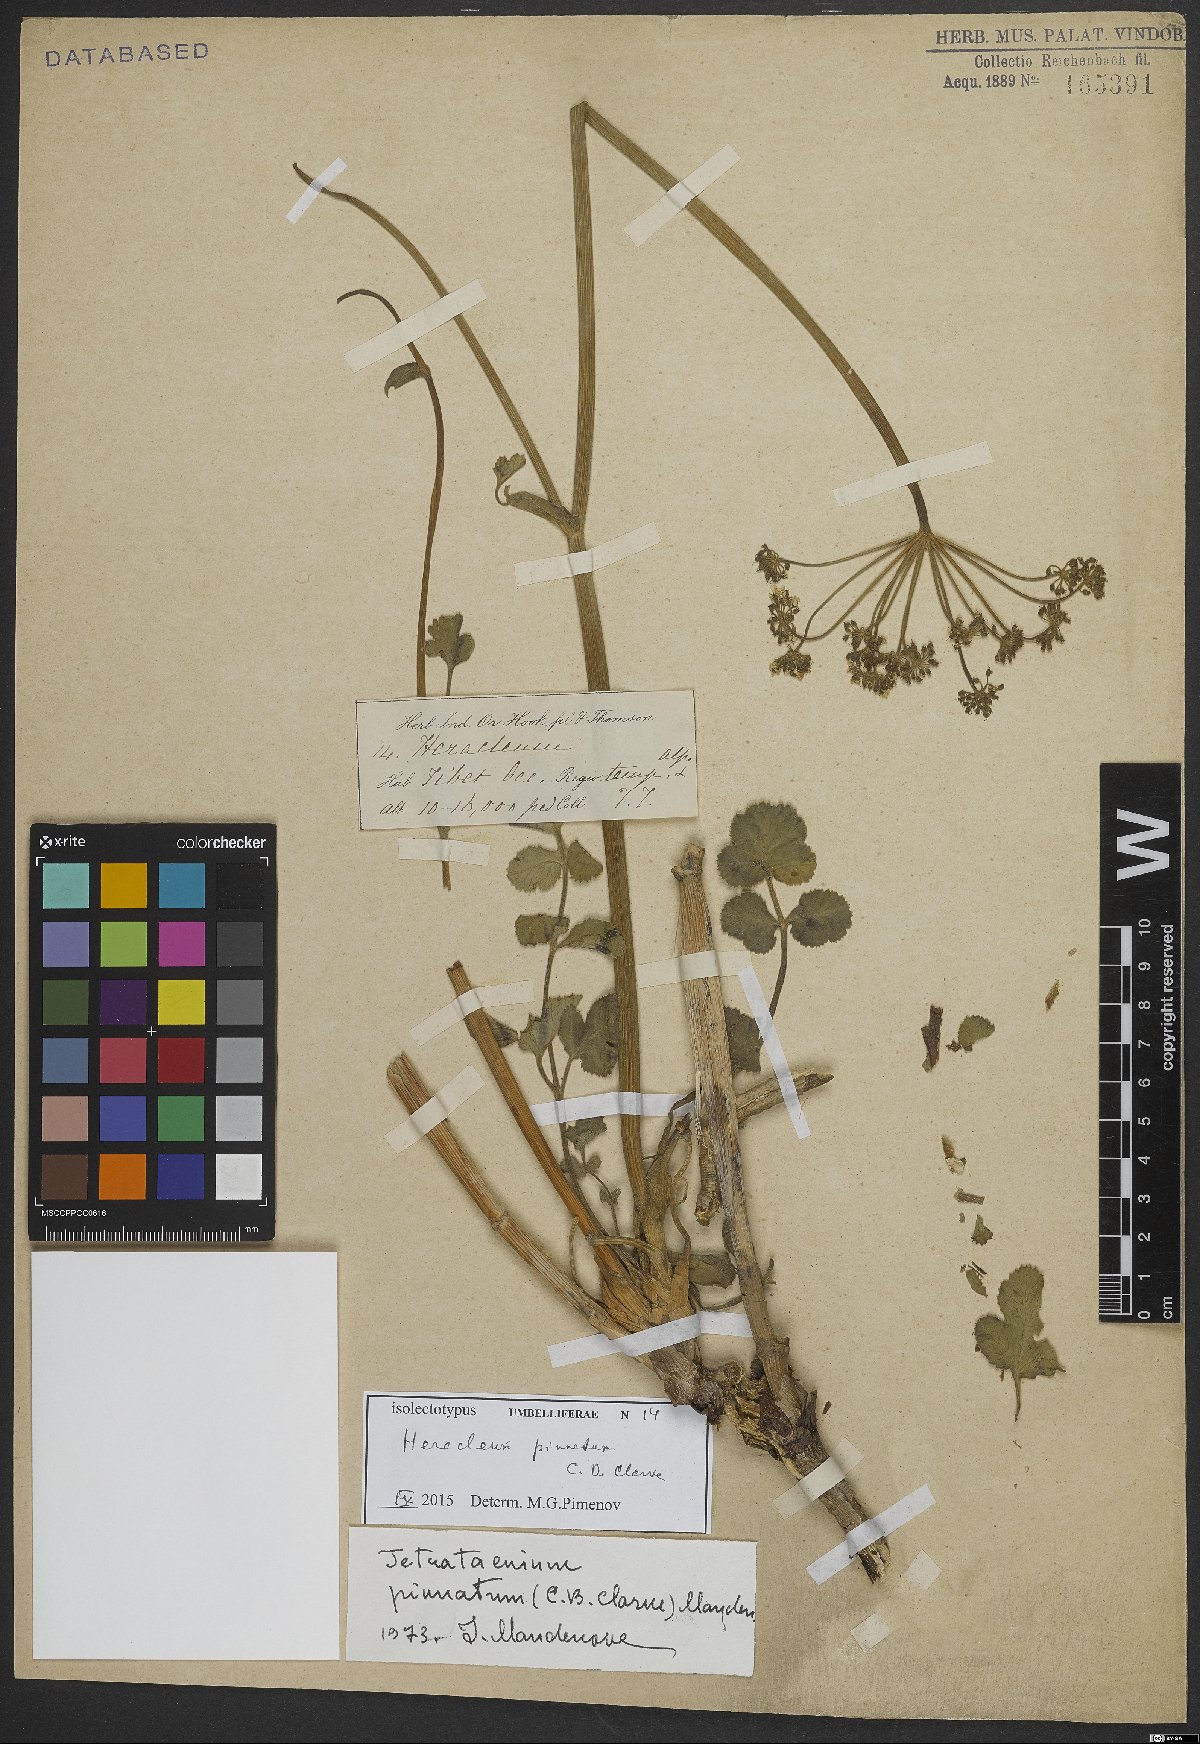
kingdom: Plantae
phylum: Tracheophyta
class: Magnoliopsida
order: Apiales
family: Apiaceae
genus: Tetrataenium
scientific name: Tetrataenium pinnatum
